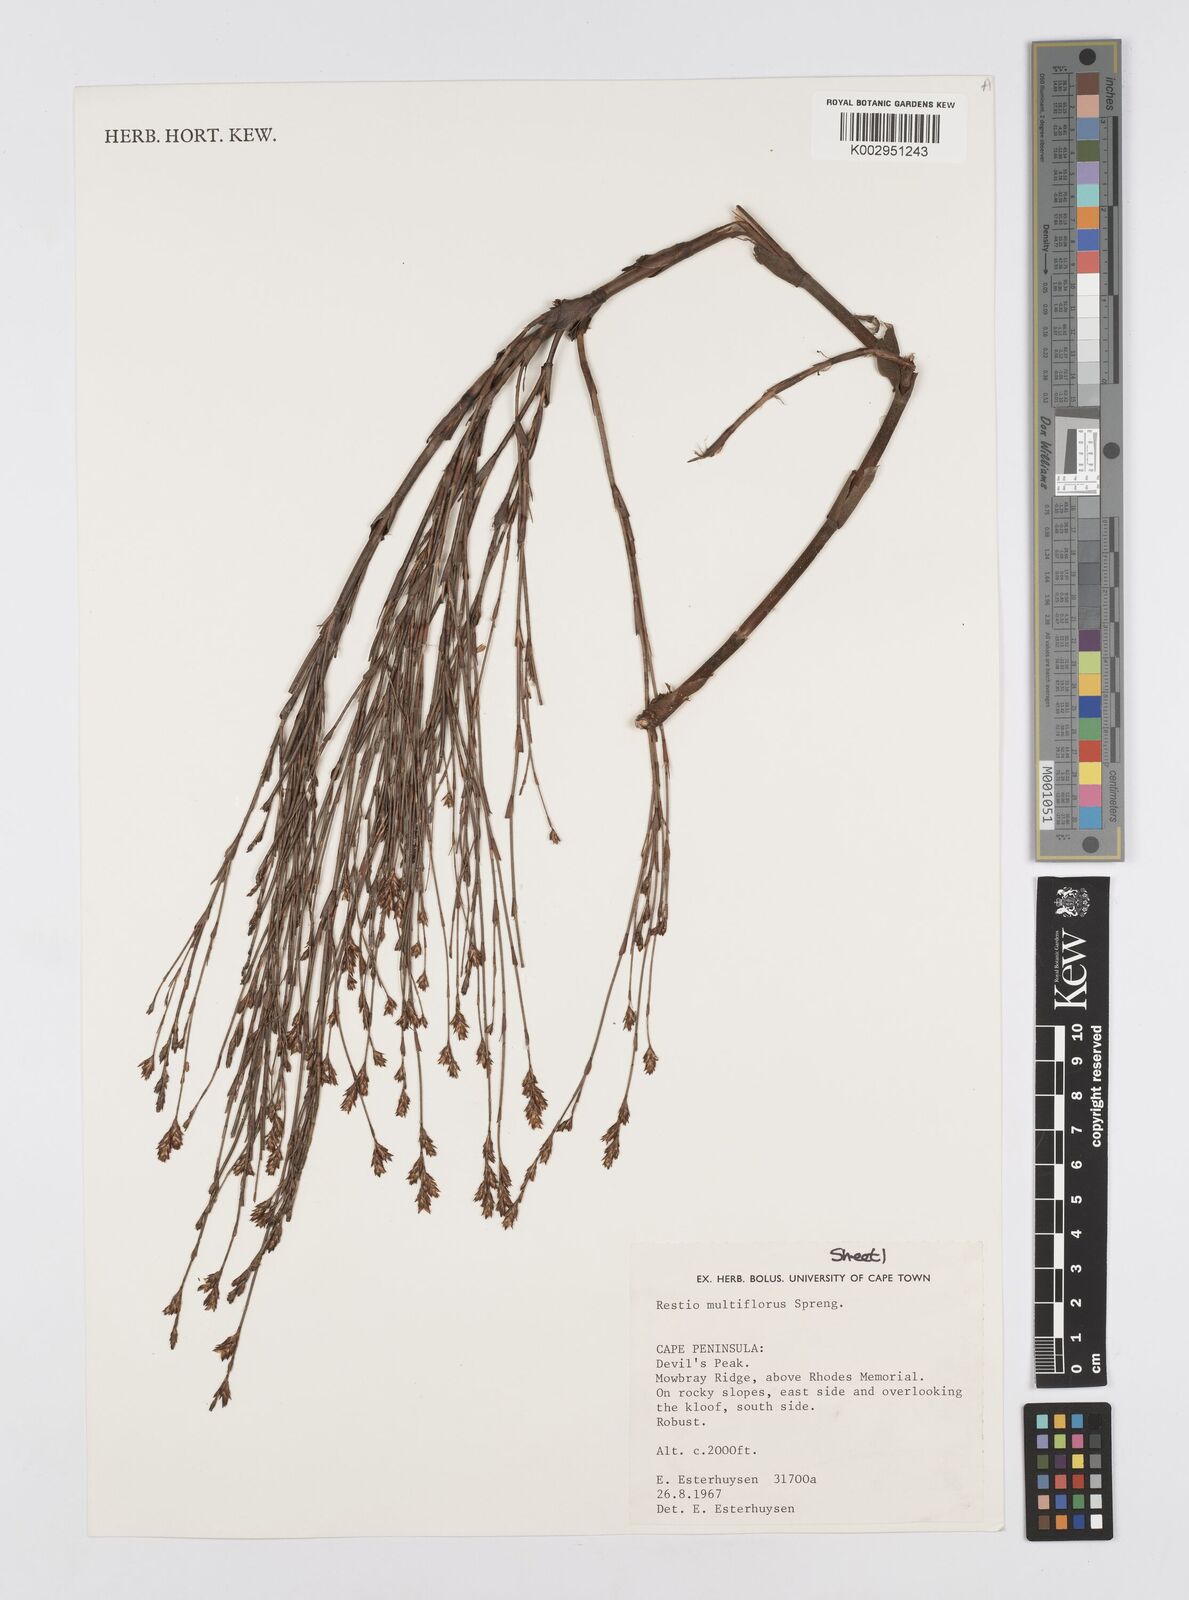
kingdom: Plantae
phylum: Tracheophyta
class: Liliopsida
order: Poales
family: Restionaceae
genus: Restio
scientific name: Restio multiflorus
